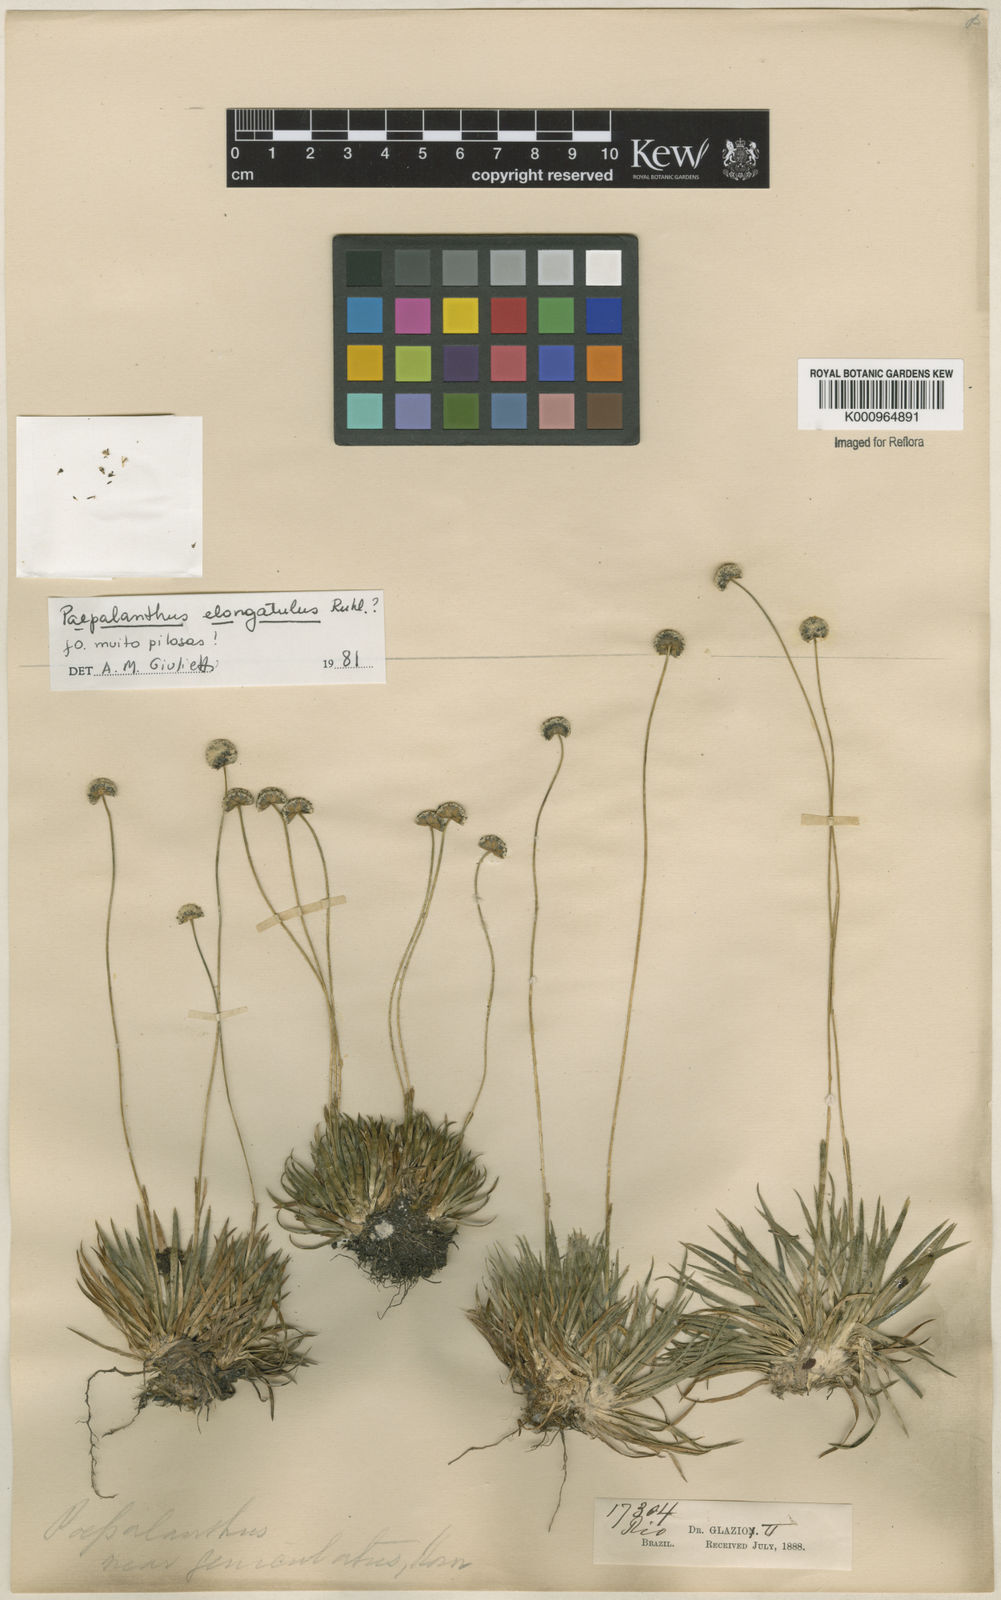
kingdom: Plantae
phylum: Tracheophyta
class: Liliopsida
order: Poales
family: Eriocaulaceae
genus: Paepalanthus
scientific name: Paepalanthus
